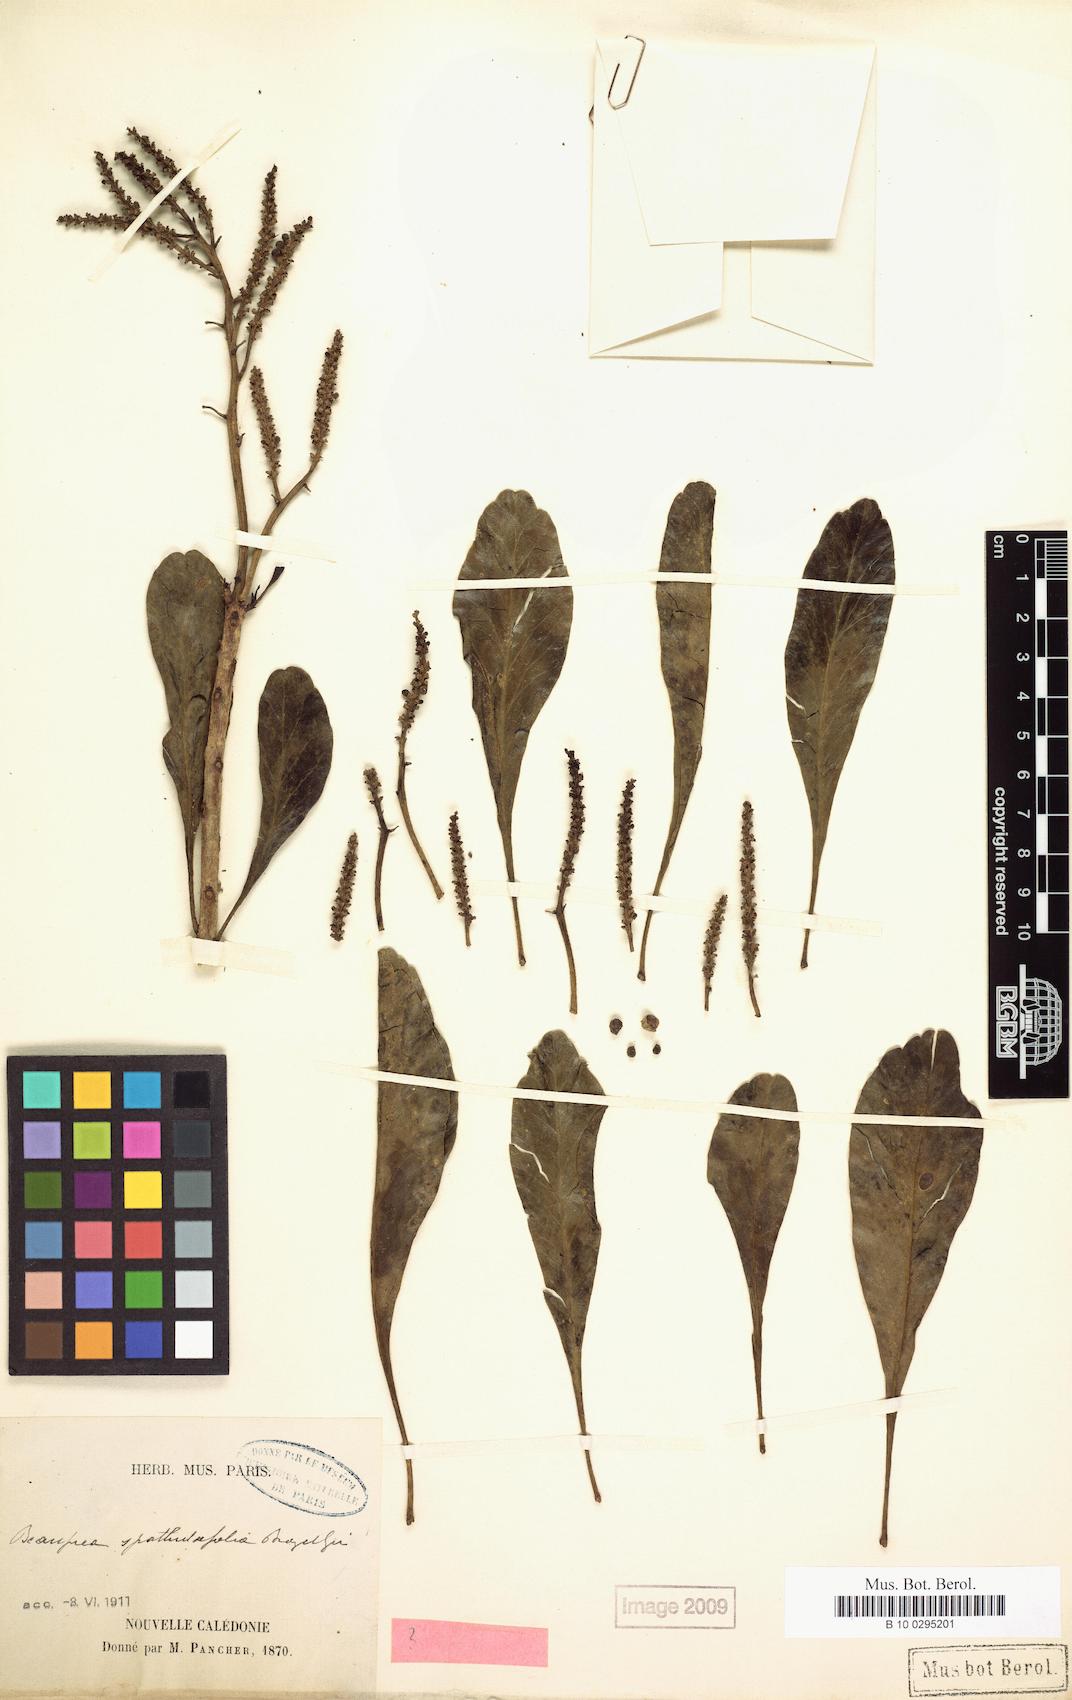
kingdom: Plantae
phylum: Tracheophyta
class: Magnoliopsida
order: Proteales
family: Proteaceae
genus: Beauprea
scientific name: Beauprea spathulifolia
